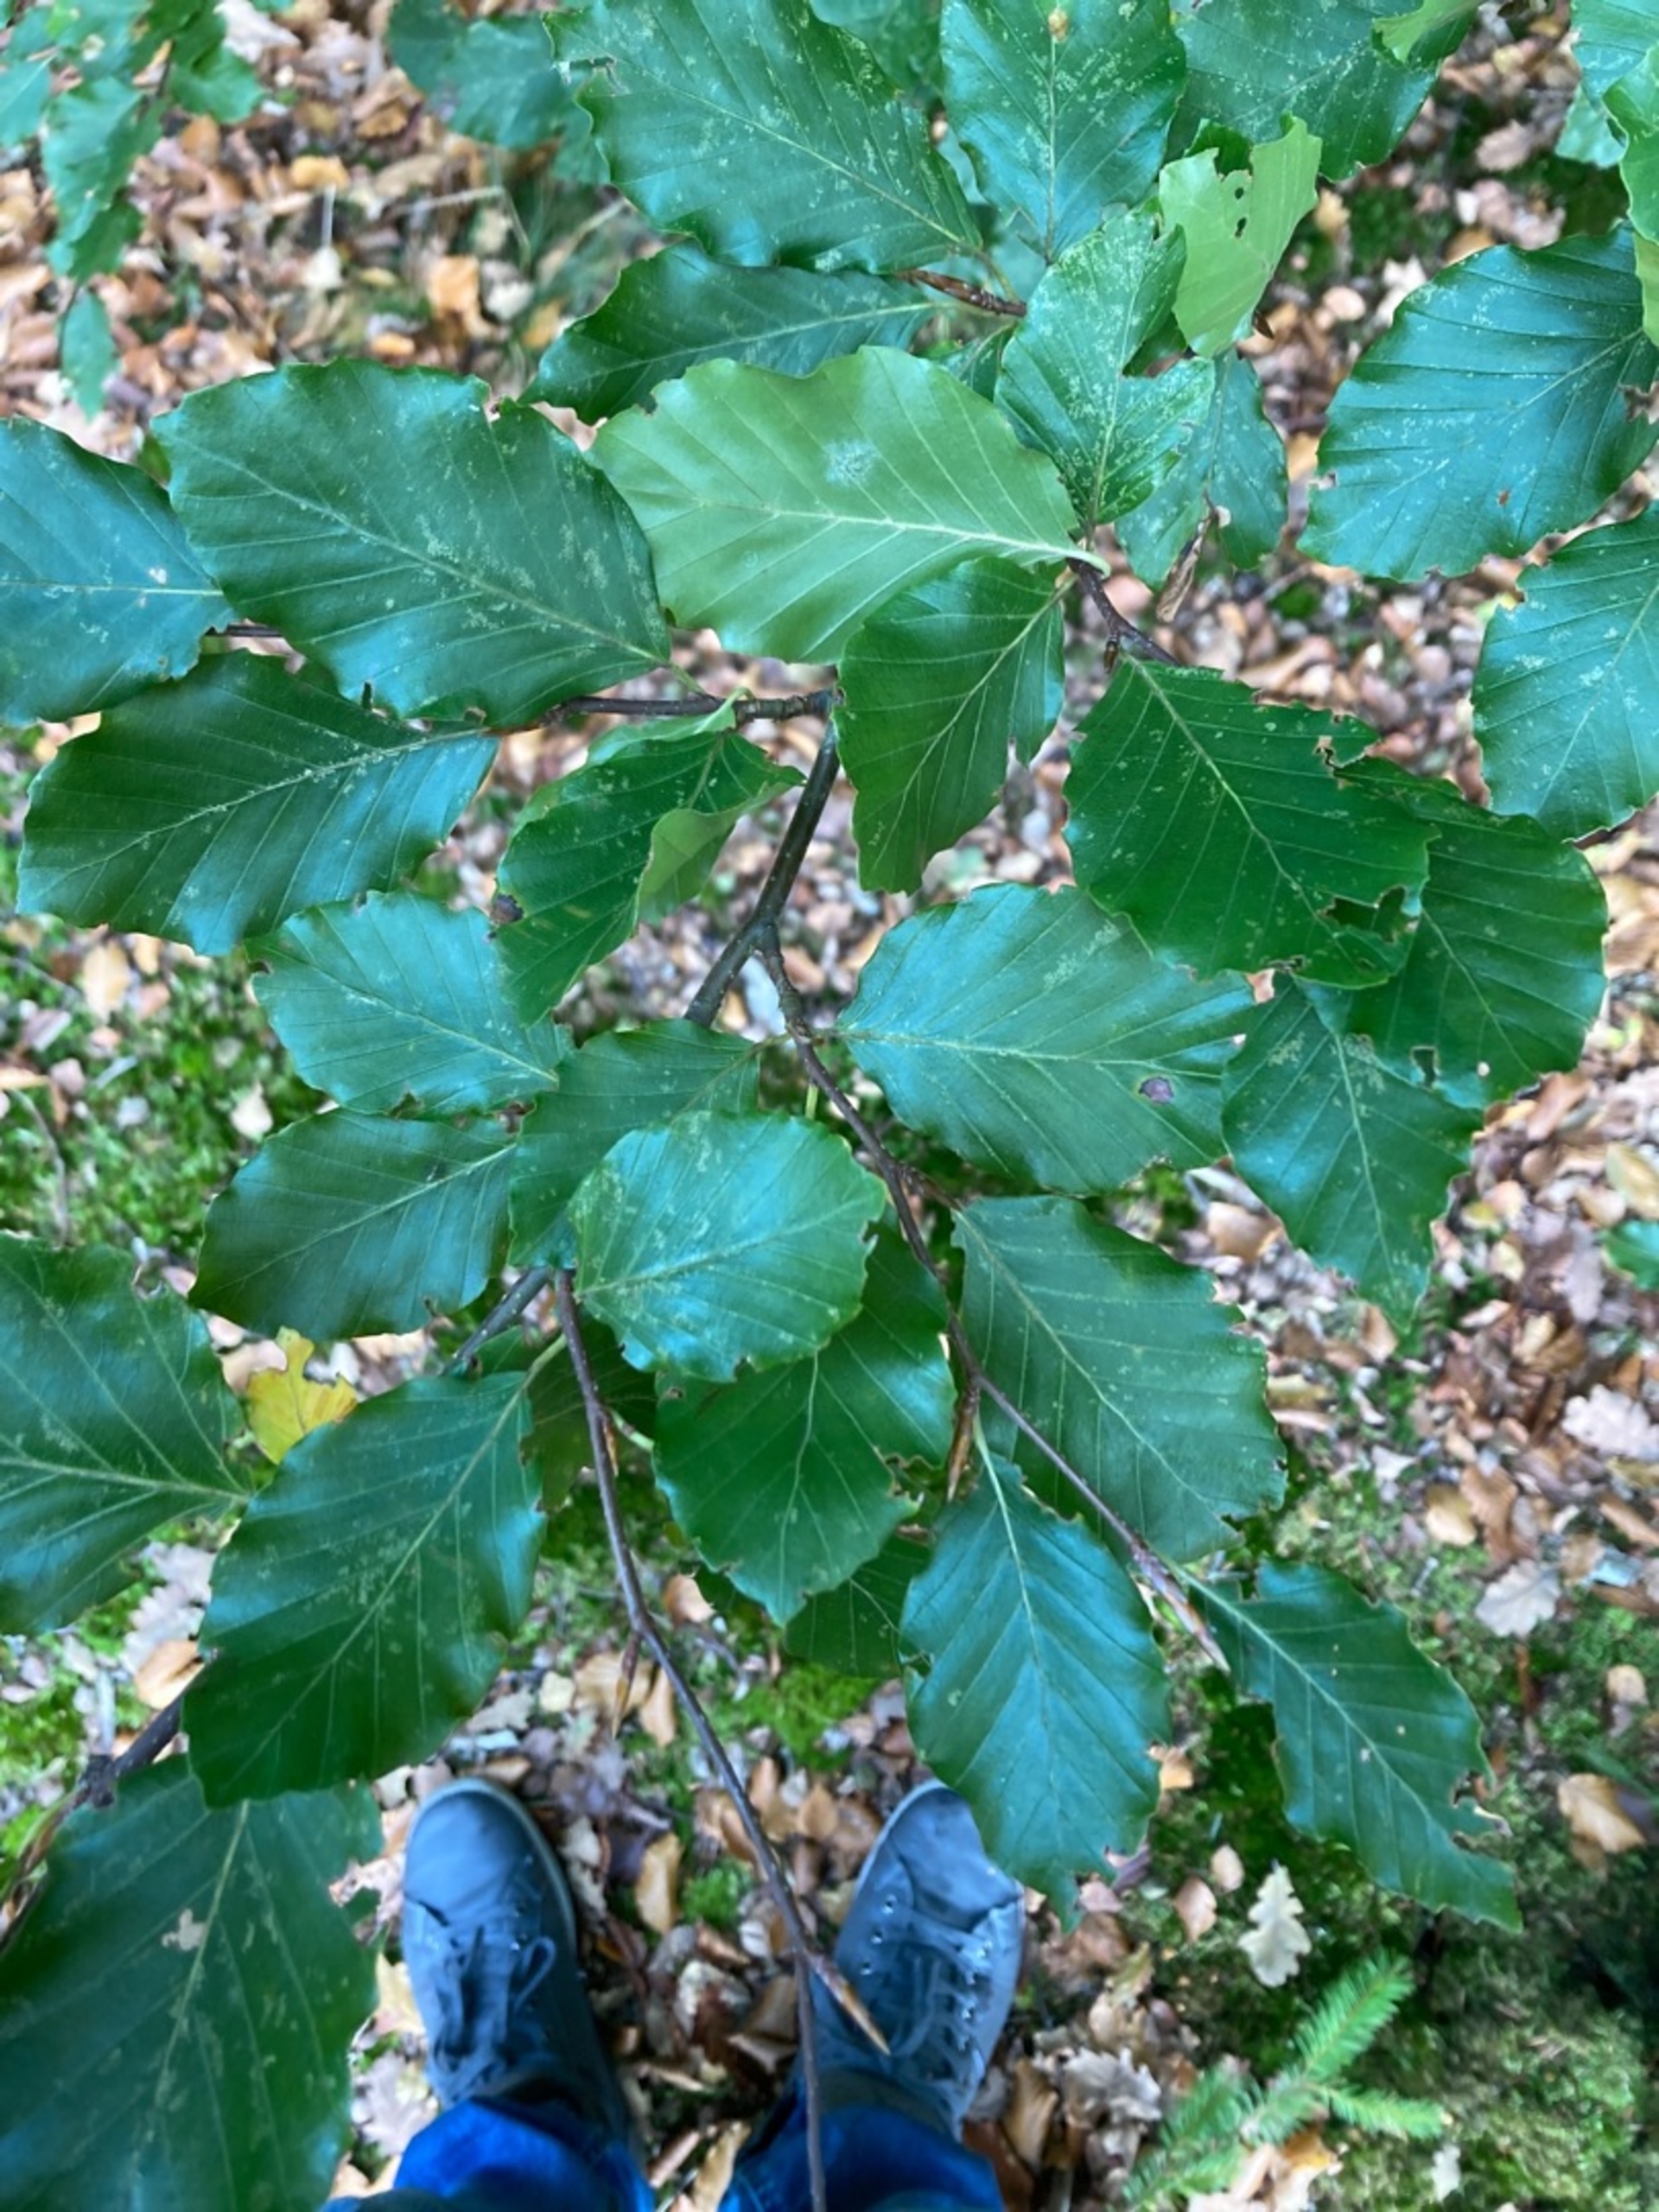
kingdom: Plantae
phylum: Tracheophyta
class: Magnoliopsida
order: Fagales
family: Fagaceae
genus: Fagus
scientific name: Fagus sylvatica
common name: Bøg
